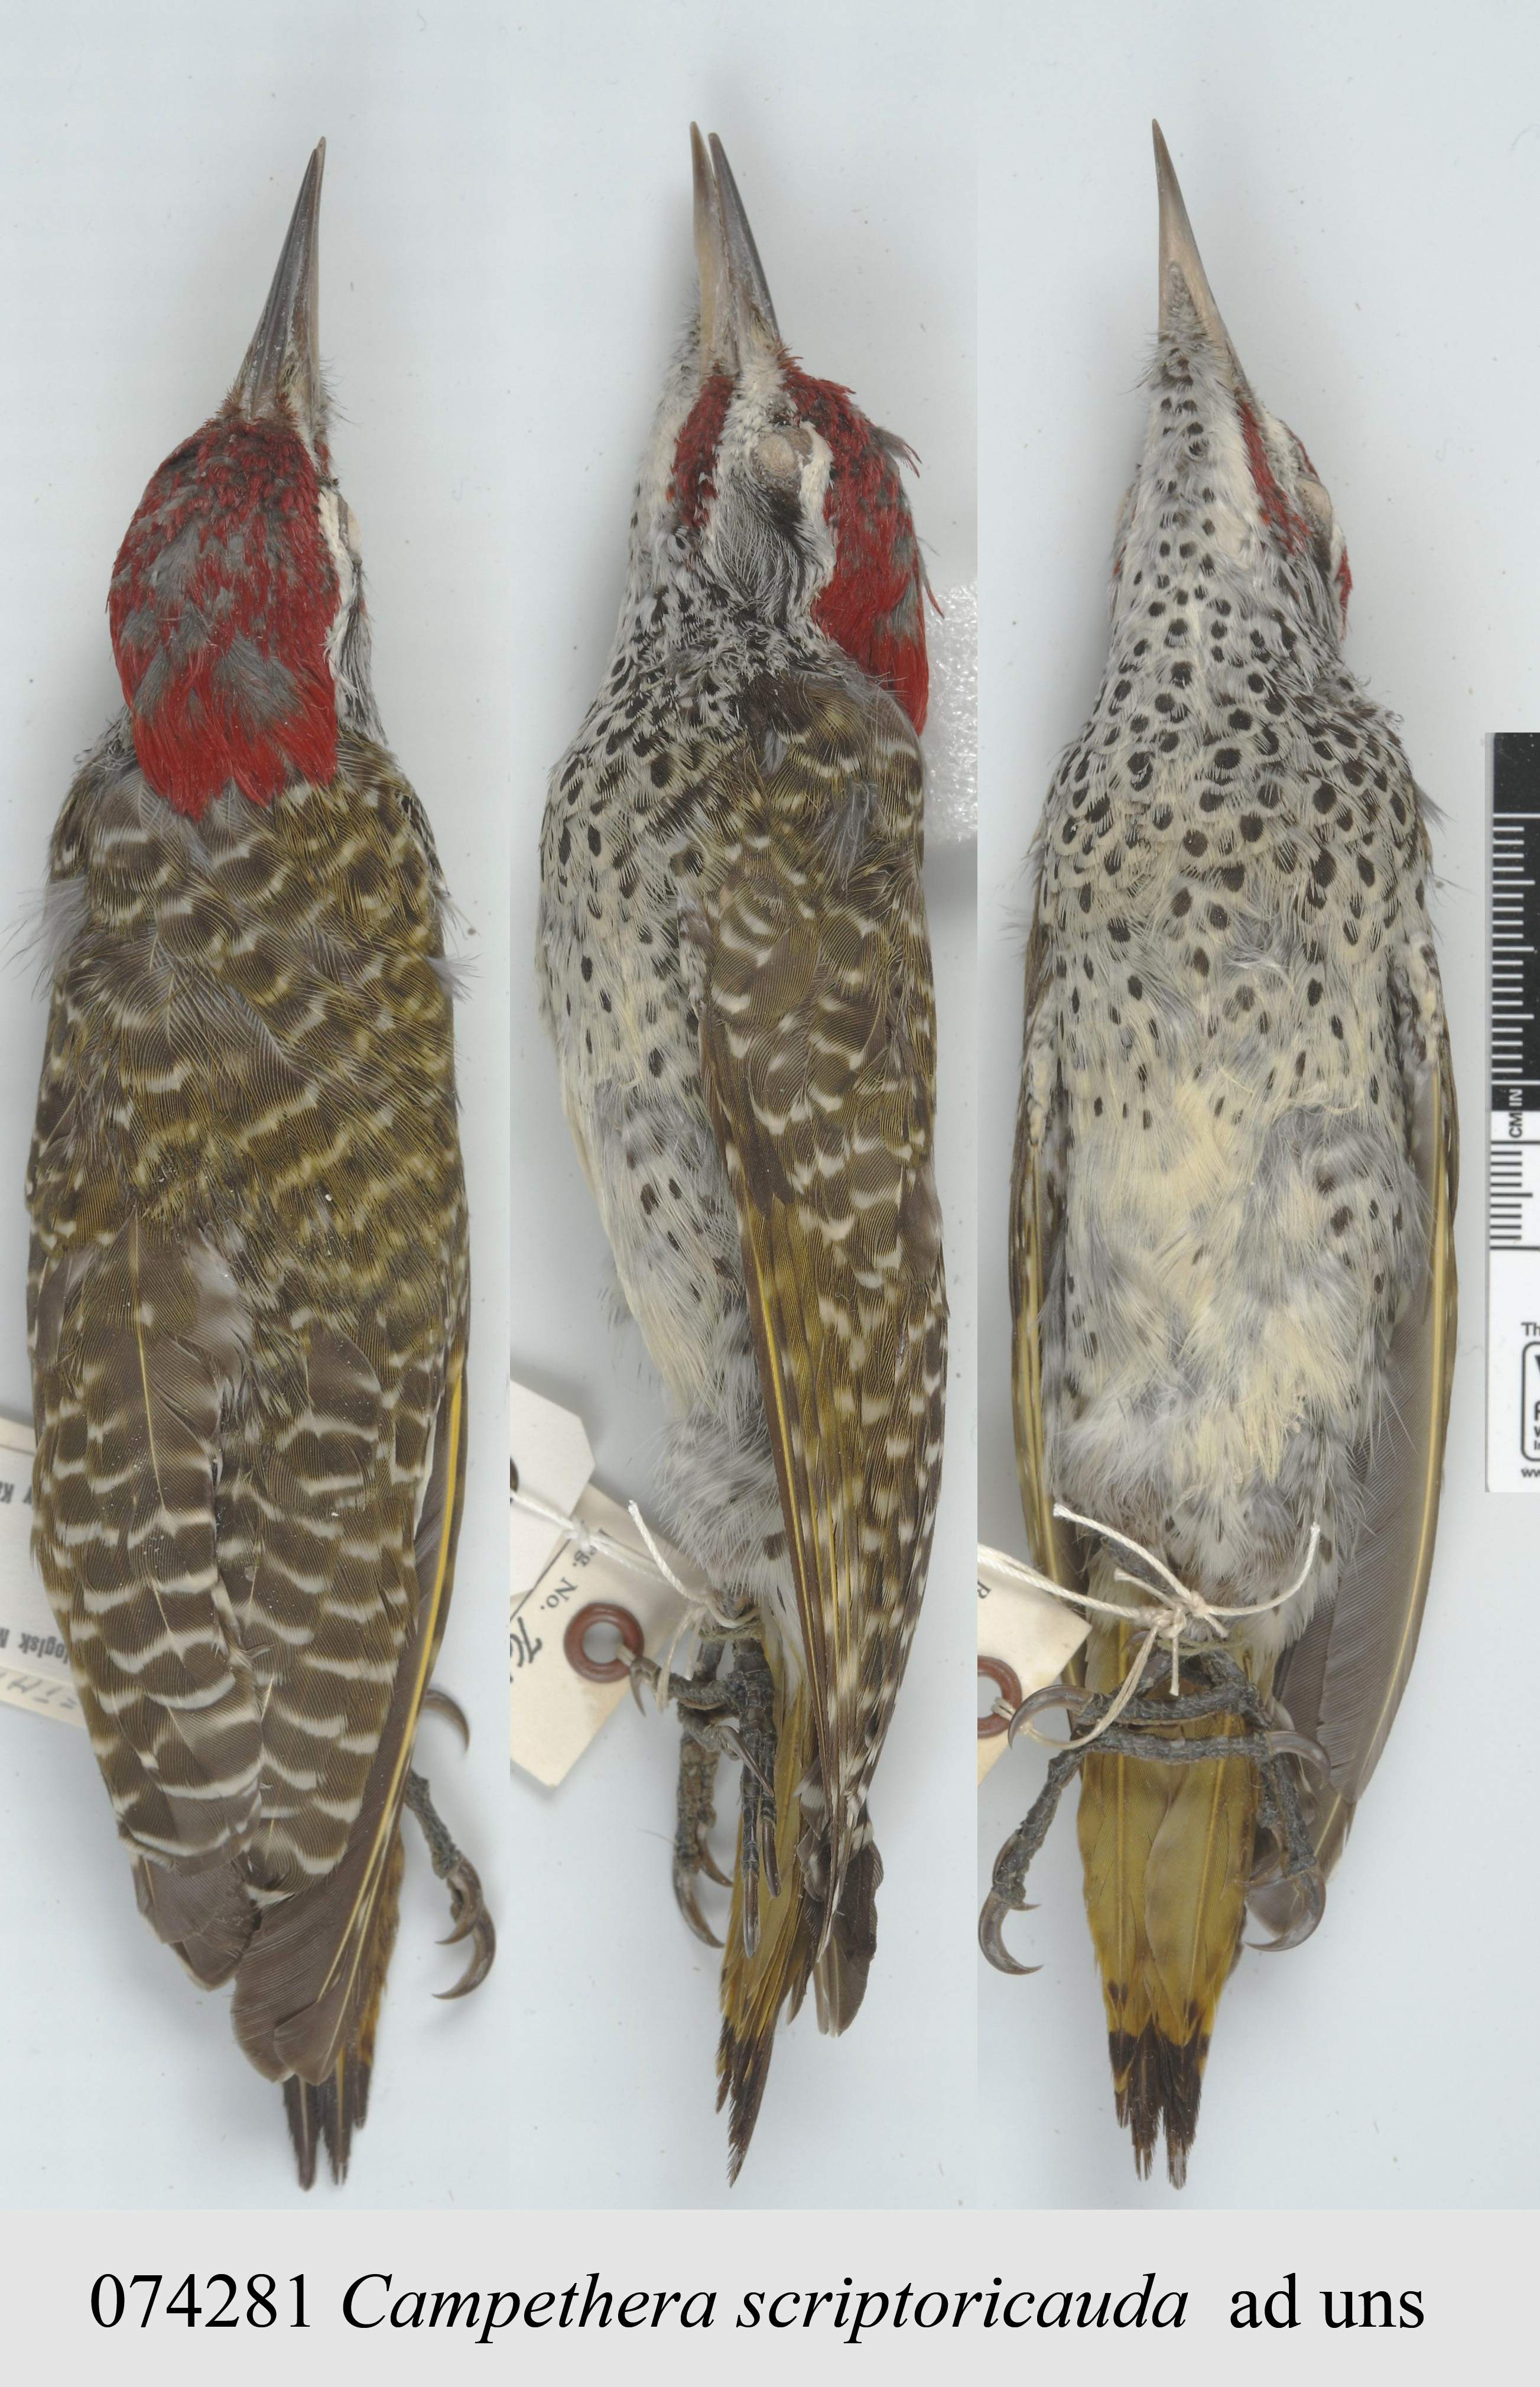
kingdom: Animalia
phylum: Chordata
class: Aves
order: Piciformes
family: Picidae
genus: Campethera
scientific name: Campethera scriptoricauda
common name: Speckle-throated woodpecker
